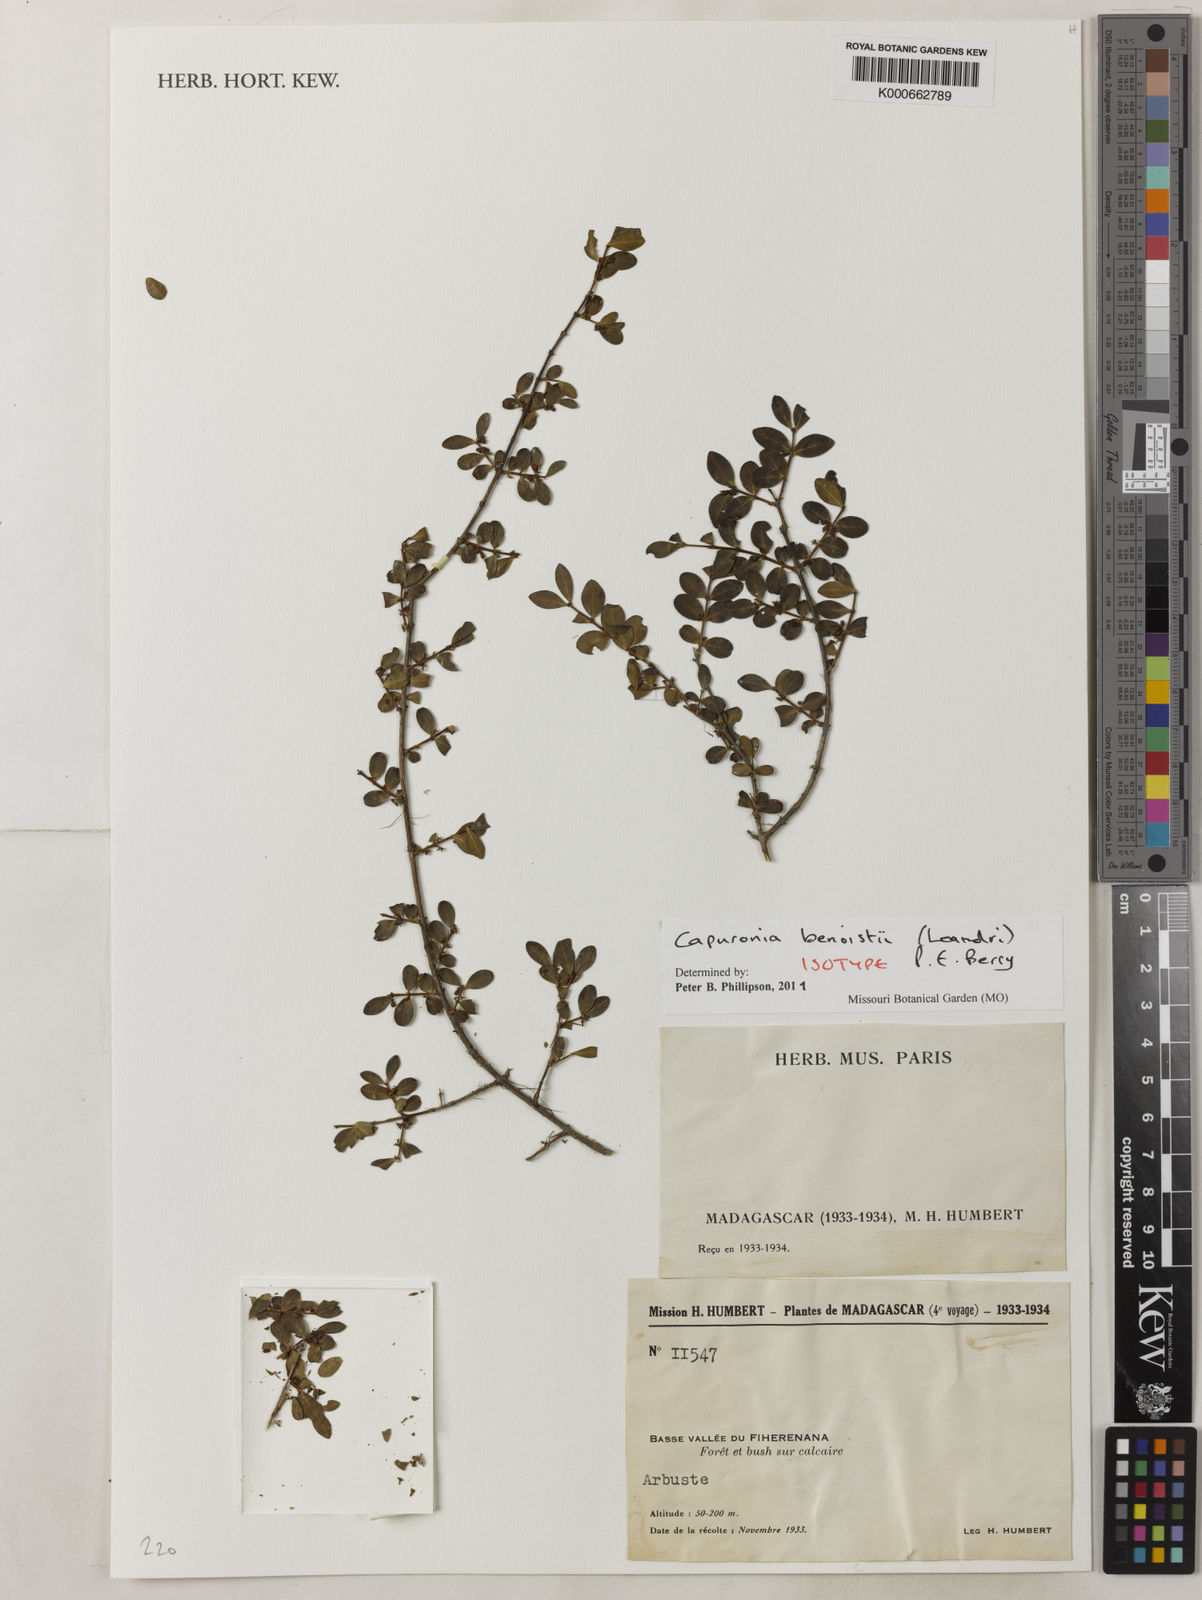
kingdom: Plantae
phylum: Tracheophyta
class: Magnoliopsida
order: Myrtales
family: Lythraceae
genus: Capuronia
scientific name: Capuronia benoistii
